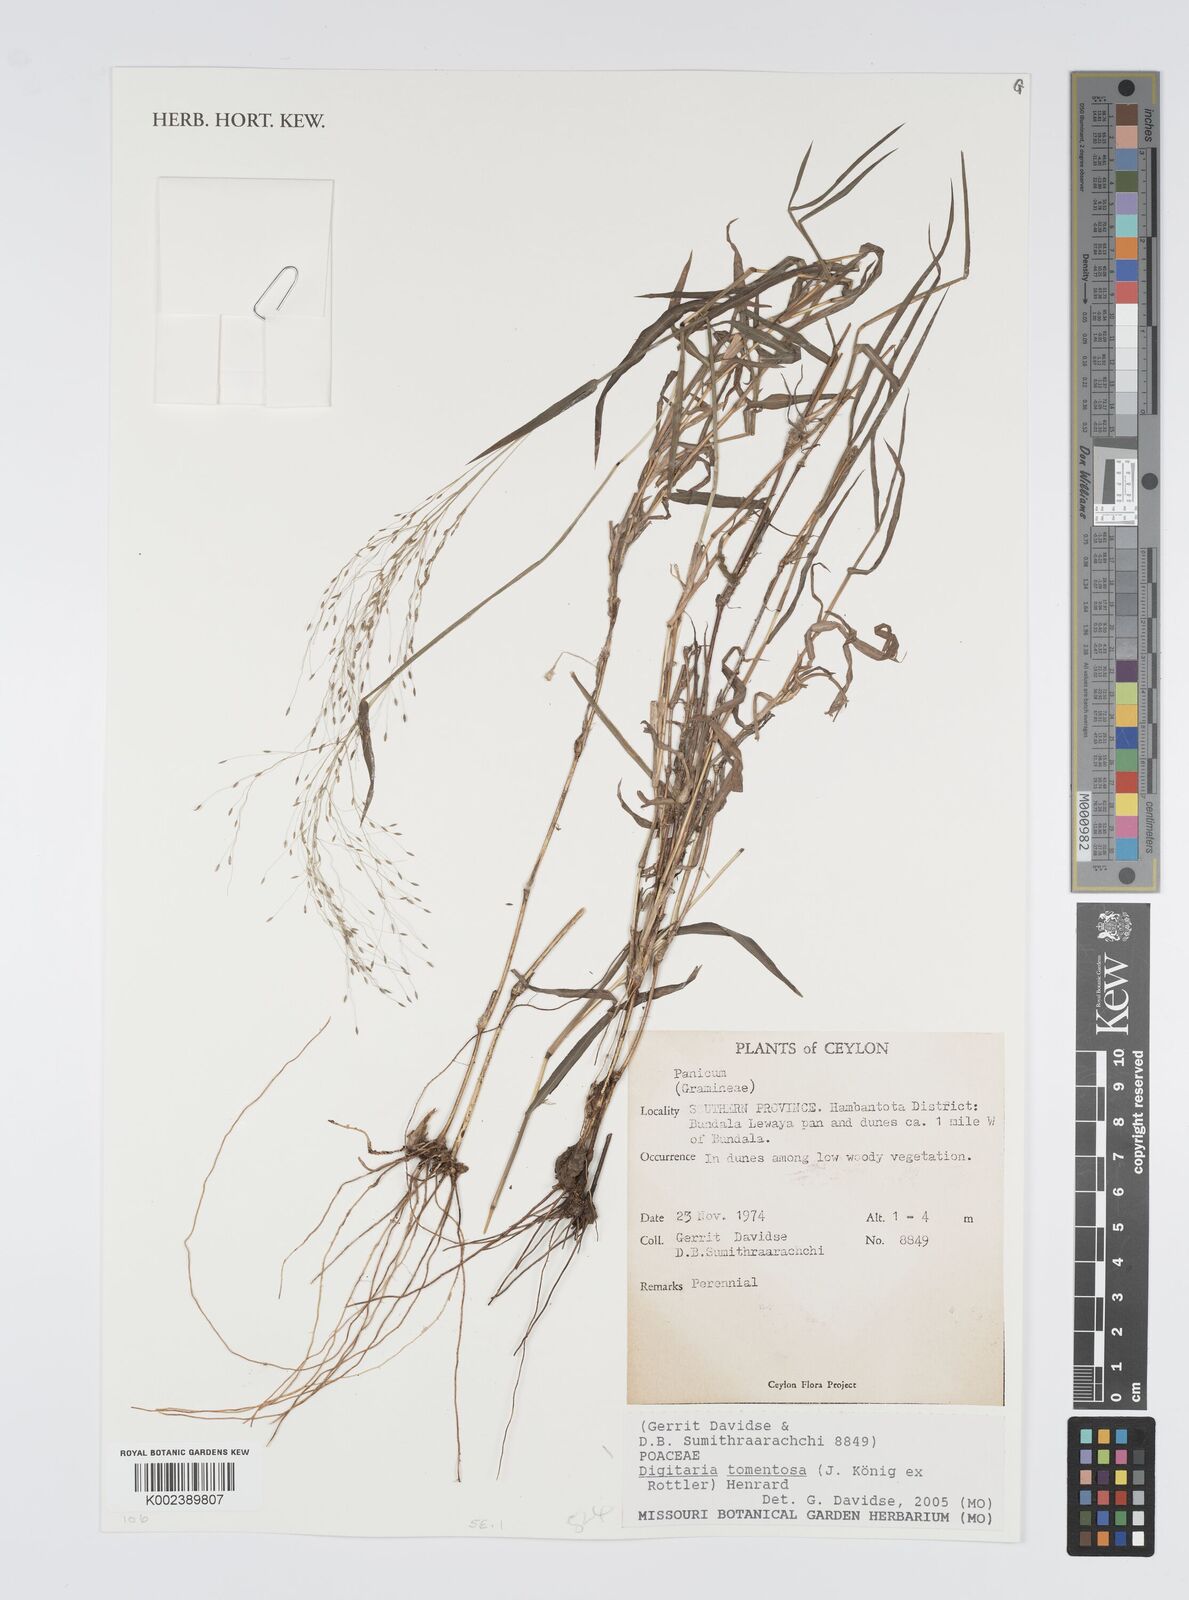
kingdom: Plantae
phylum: Tracheophyta
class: Liliopsida
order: Poales
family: Poaceae
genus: Digitaria
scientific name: Digitaria tomentosa
